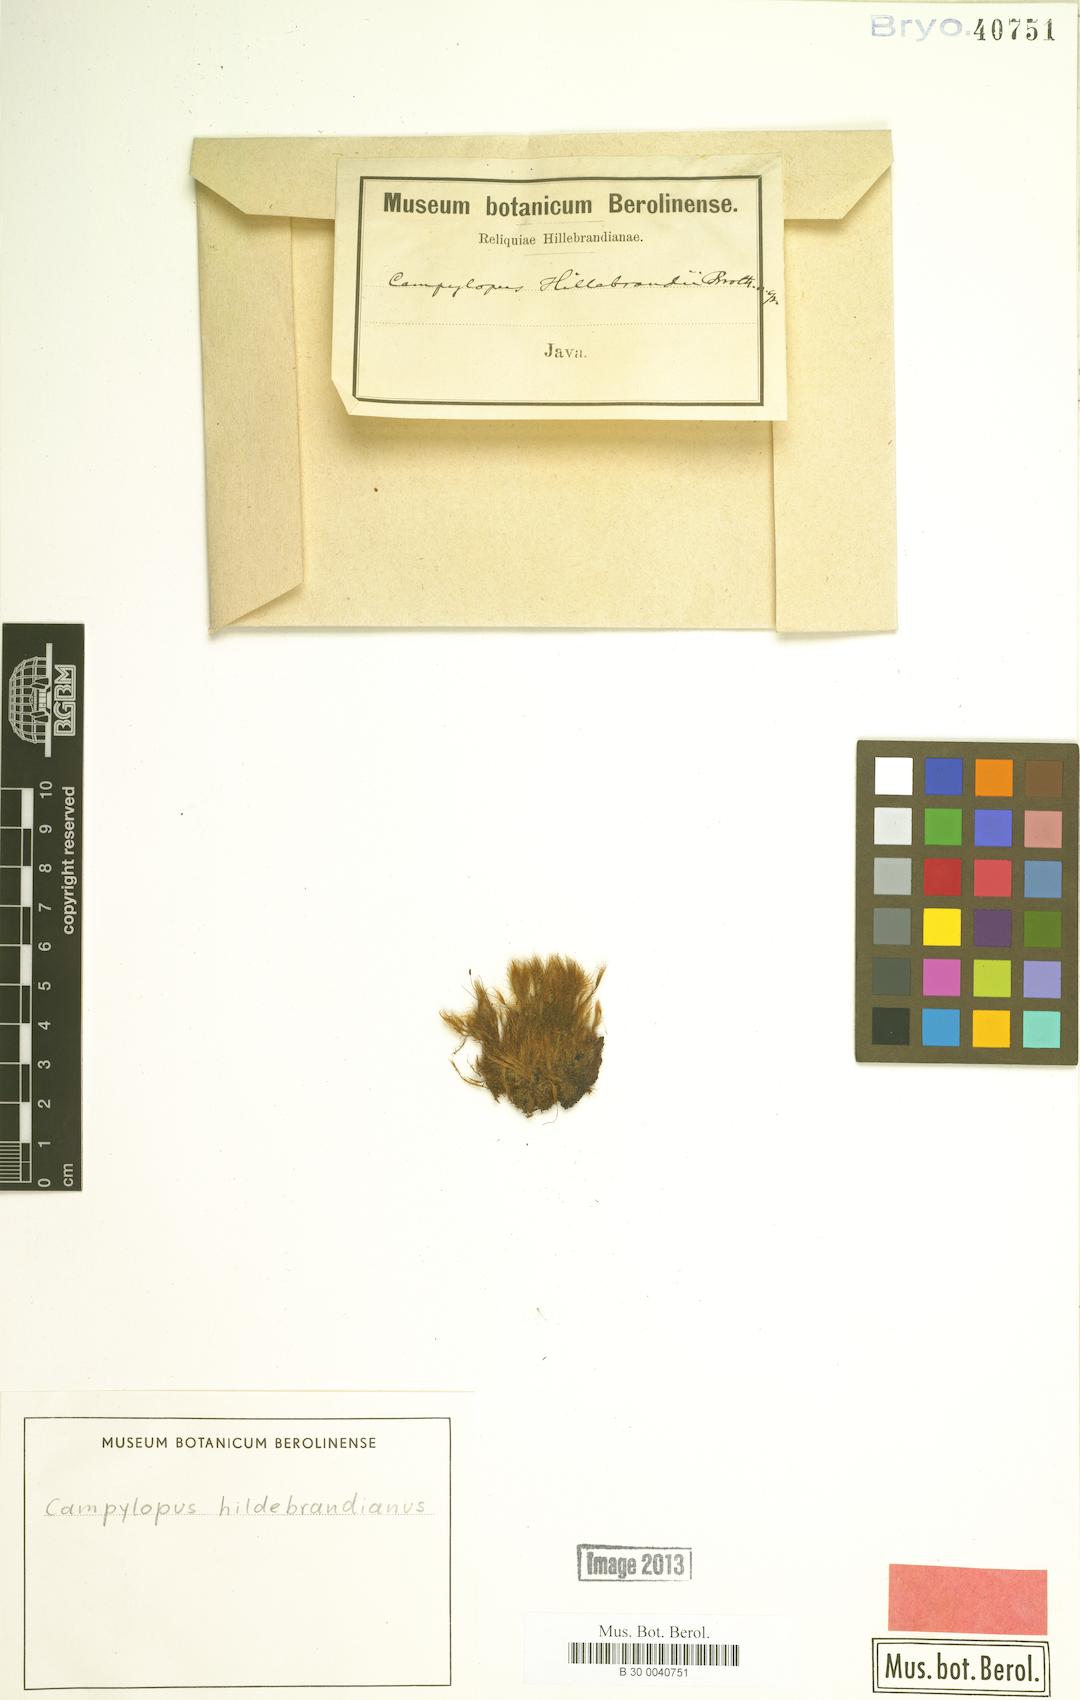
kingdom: Plantae
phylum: Bryophyta
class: Bryopsida
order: Dicranales
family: Leucobryaceae
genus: Campylopus
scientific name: Campylopus comosus
